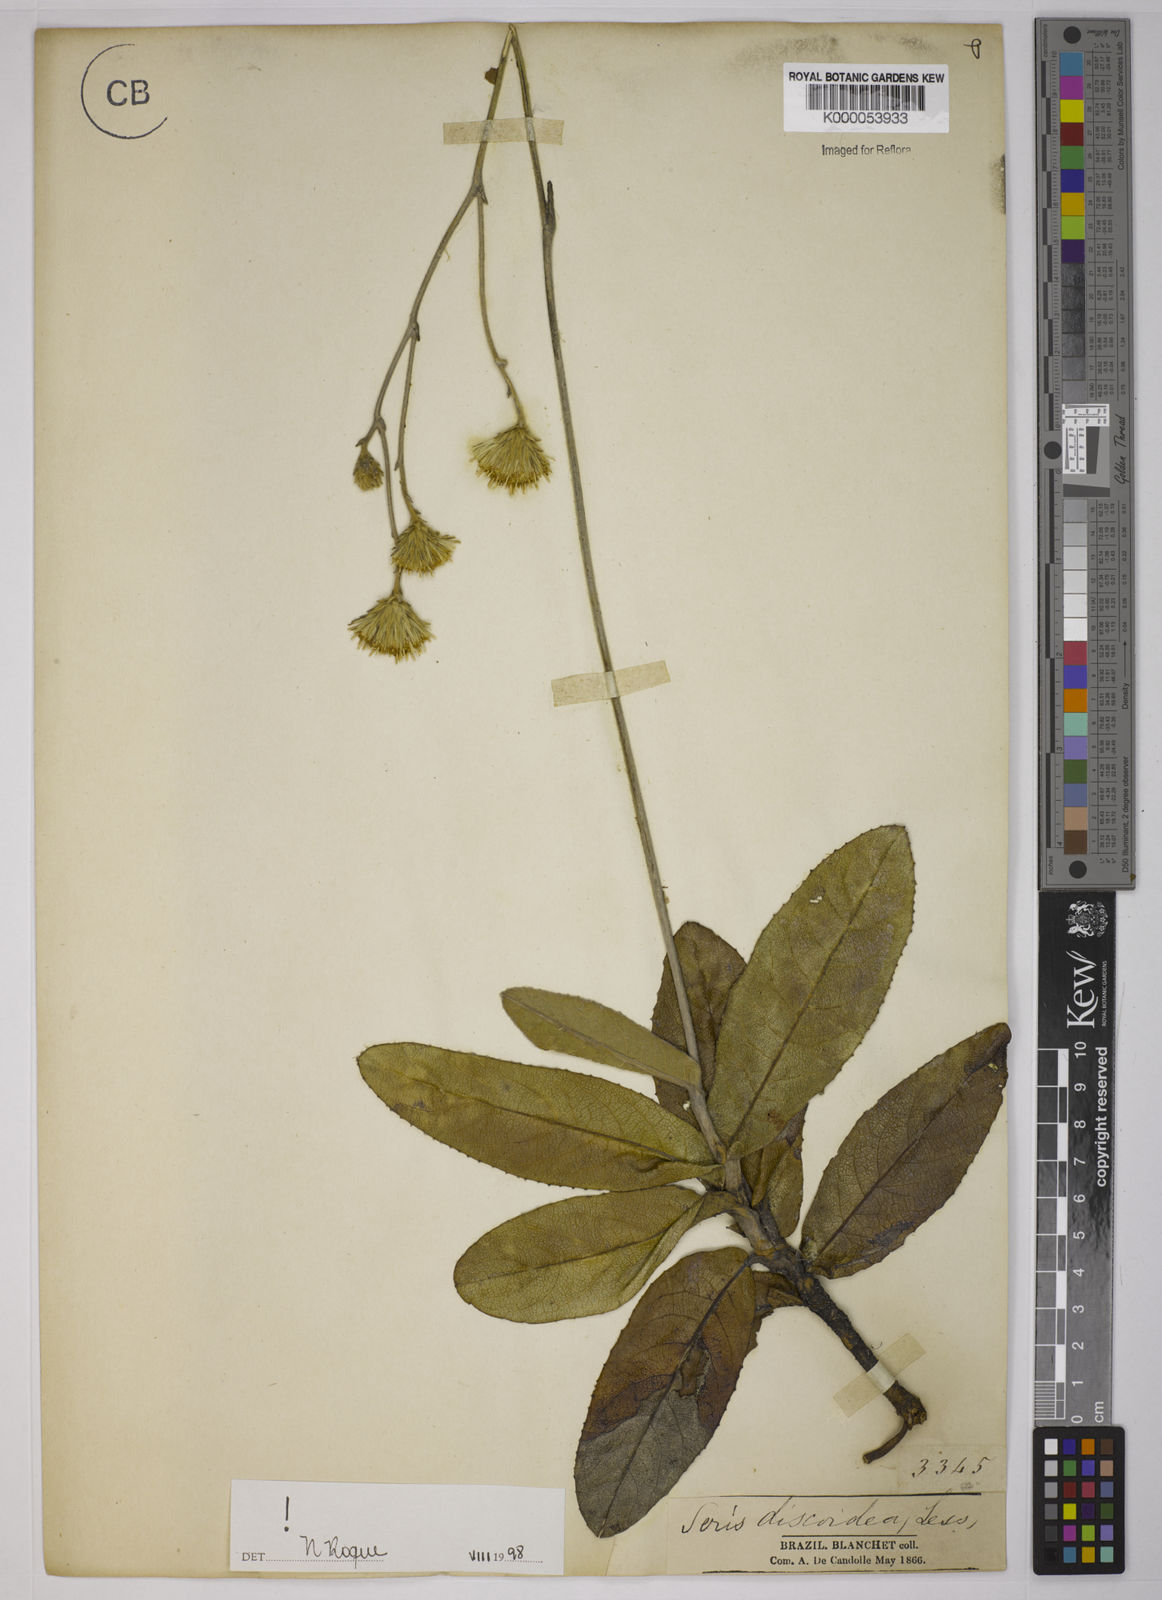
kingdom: Plantae
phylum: Tracheophyta
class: Magnoliopsida
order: Asterales
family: Asteraceae
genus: Richterago
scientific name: Richterago discoidea
